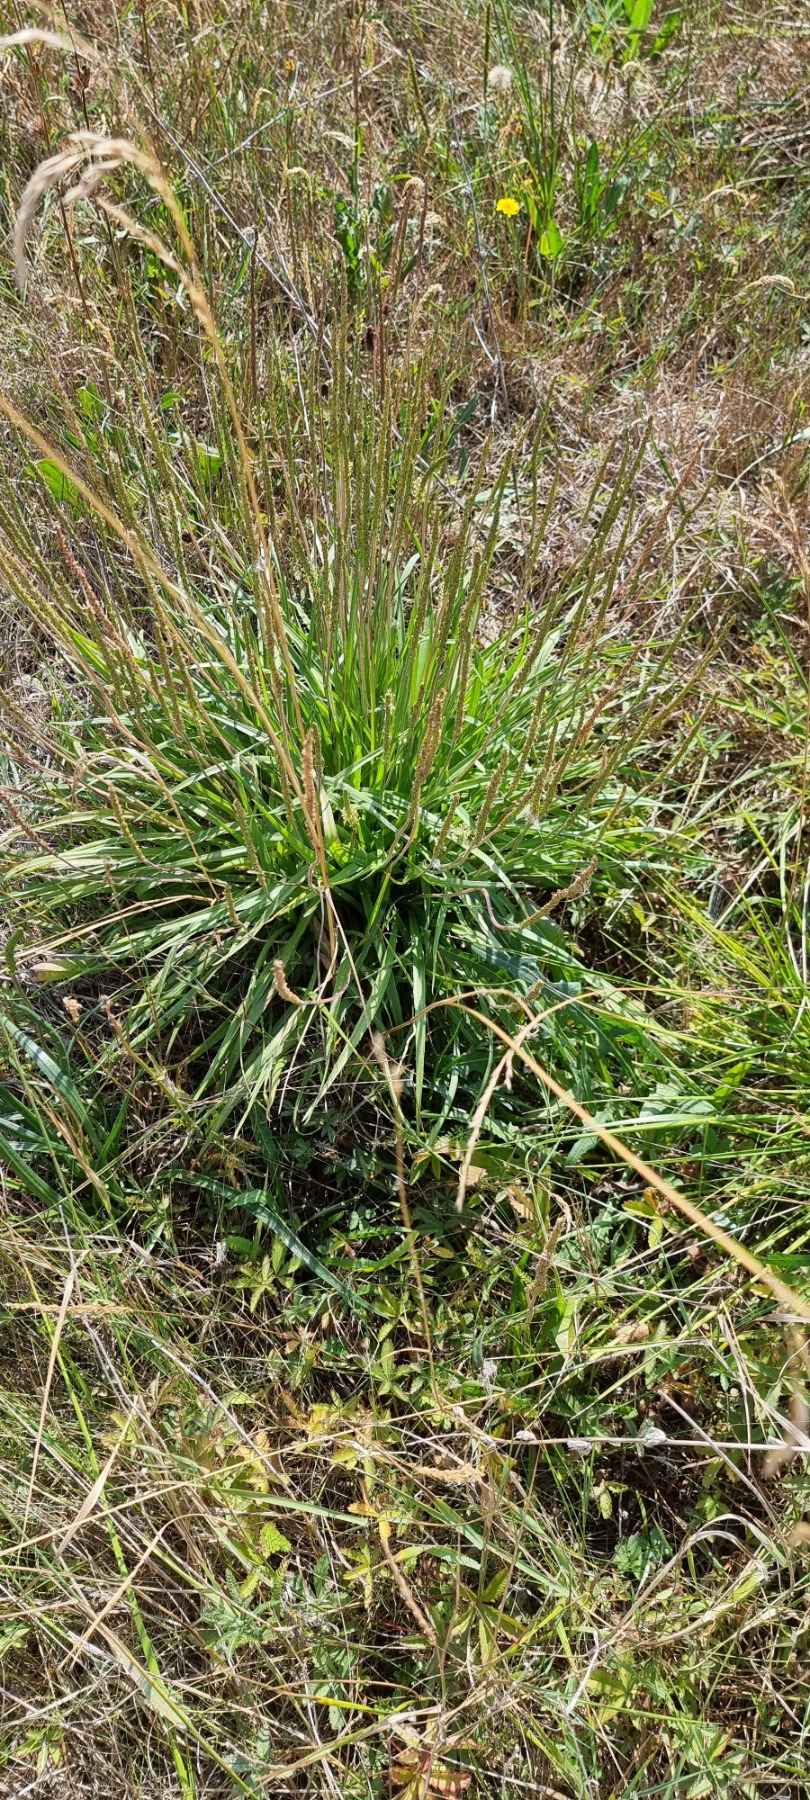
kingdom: Plantae
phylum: Tracheophyta
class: Magnoliopsida
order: Lamiales
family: Plantaginaceae
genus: Plantago
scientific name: Plantago maritima
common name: Strand-vejbred
